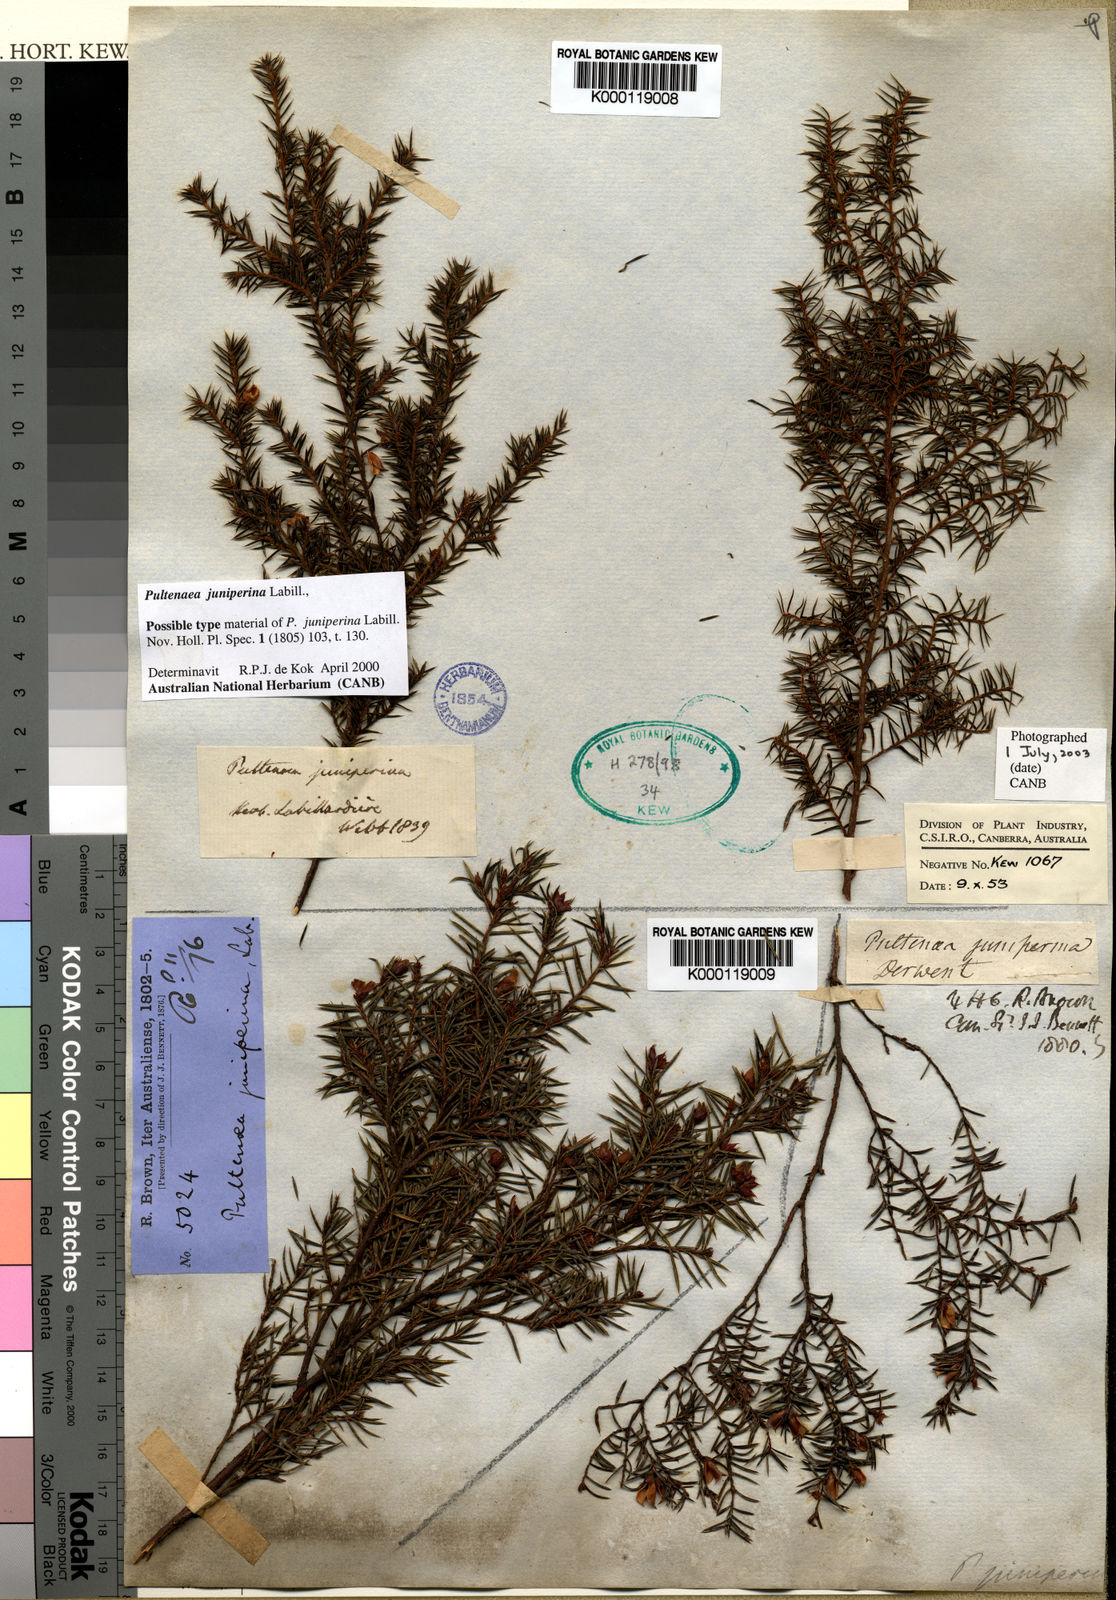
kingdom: Plantae
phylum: Tracheophyta
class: Magnoliopsida
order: Fabales
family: Fabaceae
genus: Pultenaea
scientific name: Pultenaea juniperina
